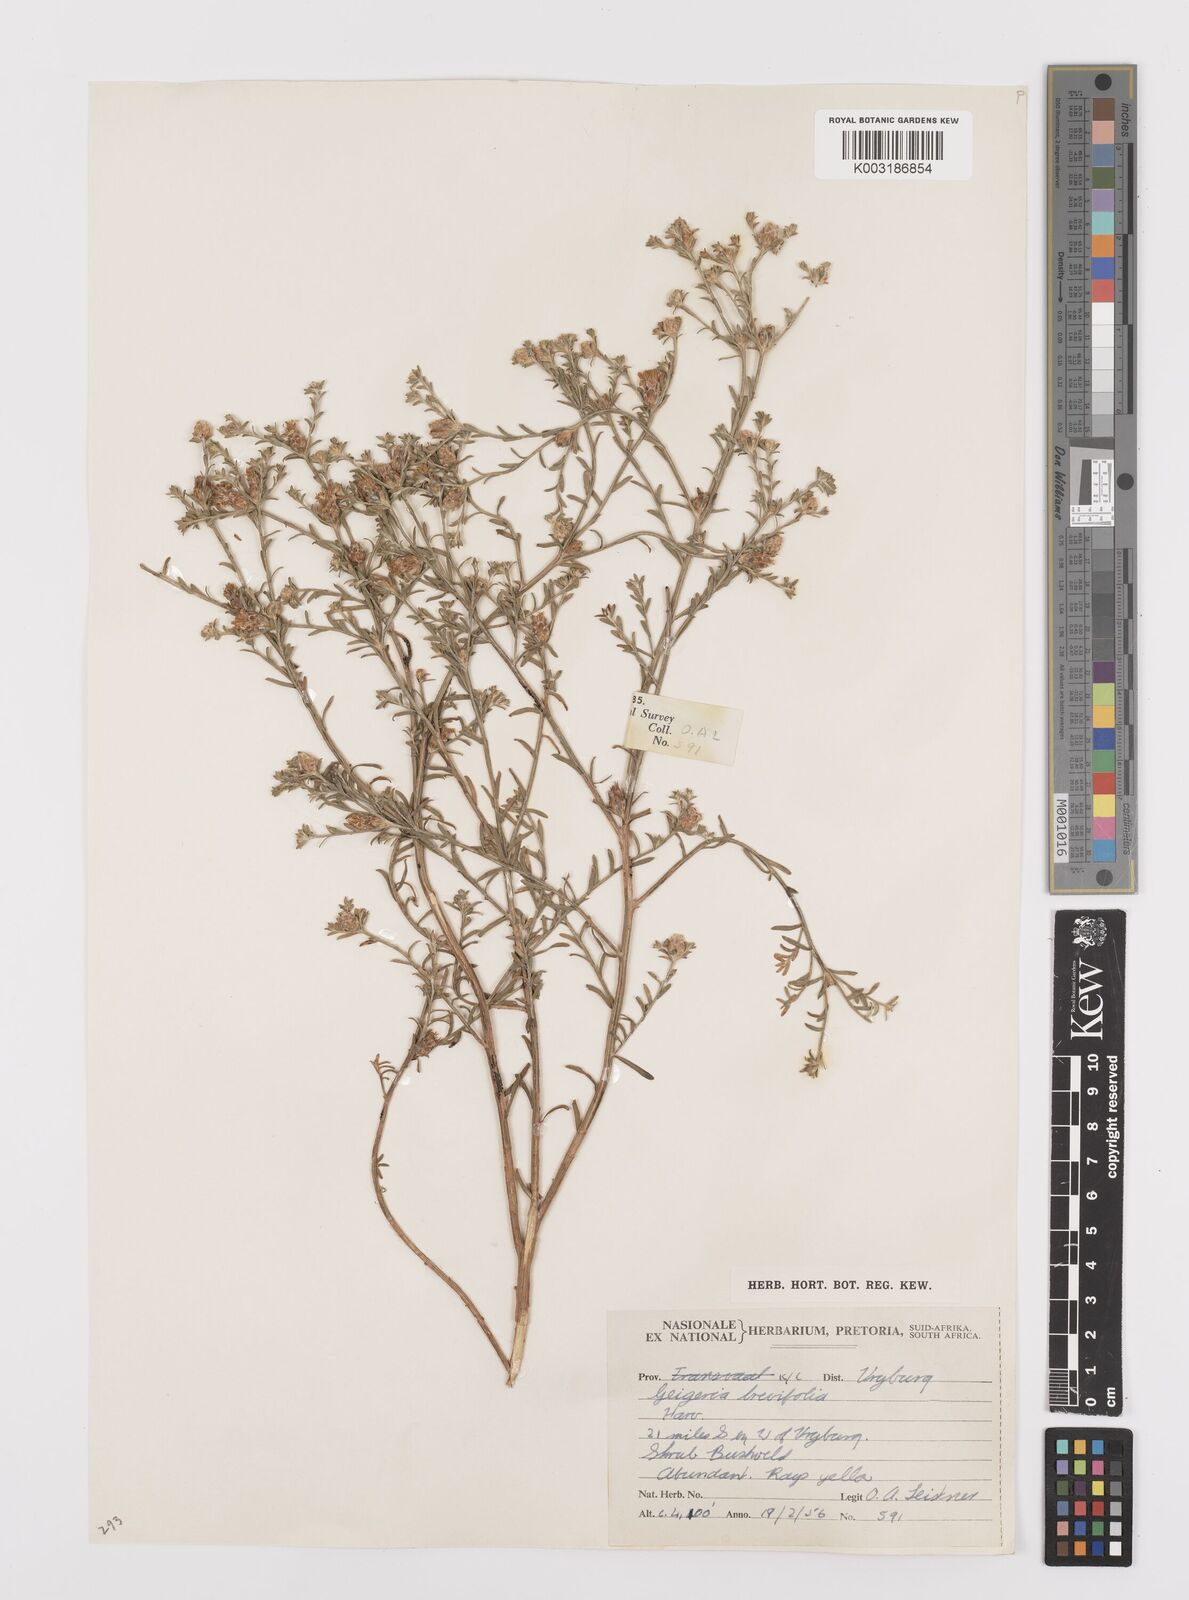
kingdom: Plantae
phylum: Tracheophyta
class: Magnoliopsida
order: Asterales
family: Asteraceae
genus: Geigeria
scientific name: Geigeria brevifolia
